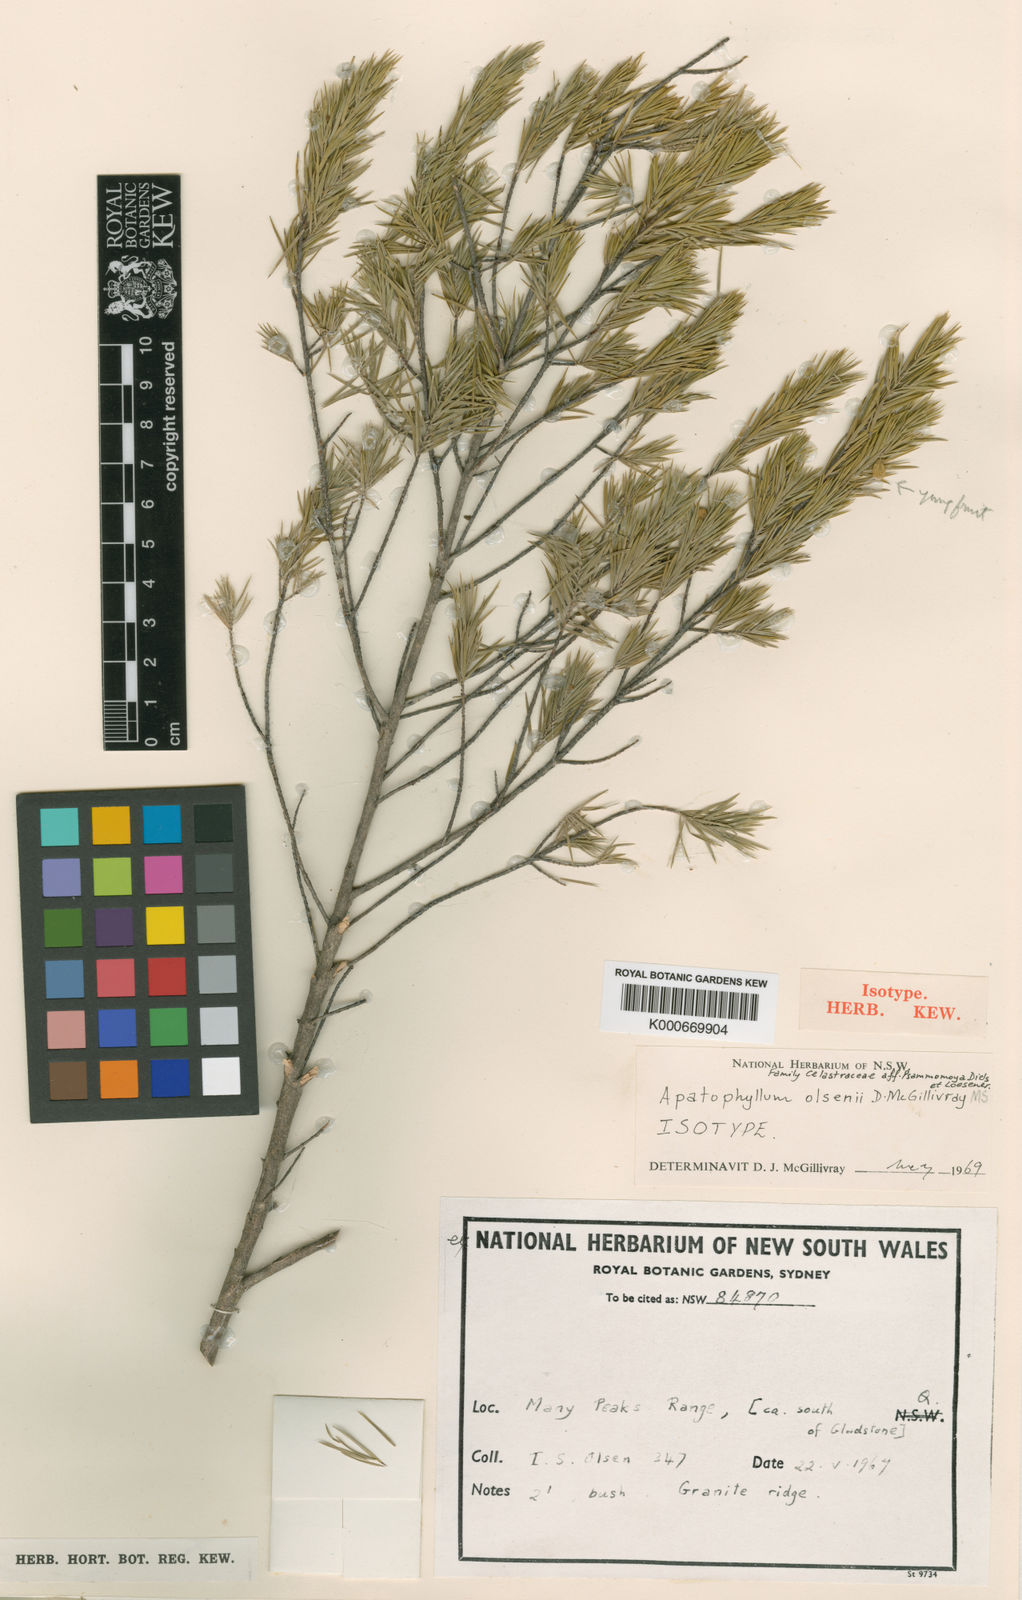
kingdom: Plantae
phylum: Tracheophyta
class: Magnoliopsida
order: Celastrales
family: Celastraceae
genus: Apatophyllum
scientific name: Apatophyllum olsenii
